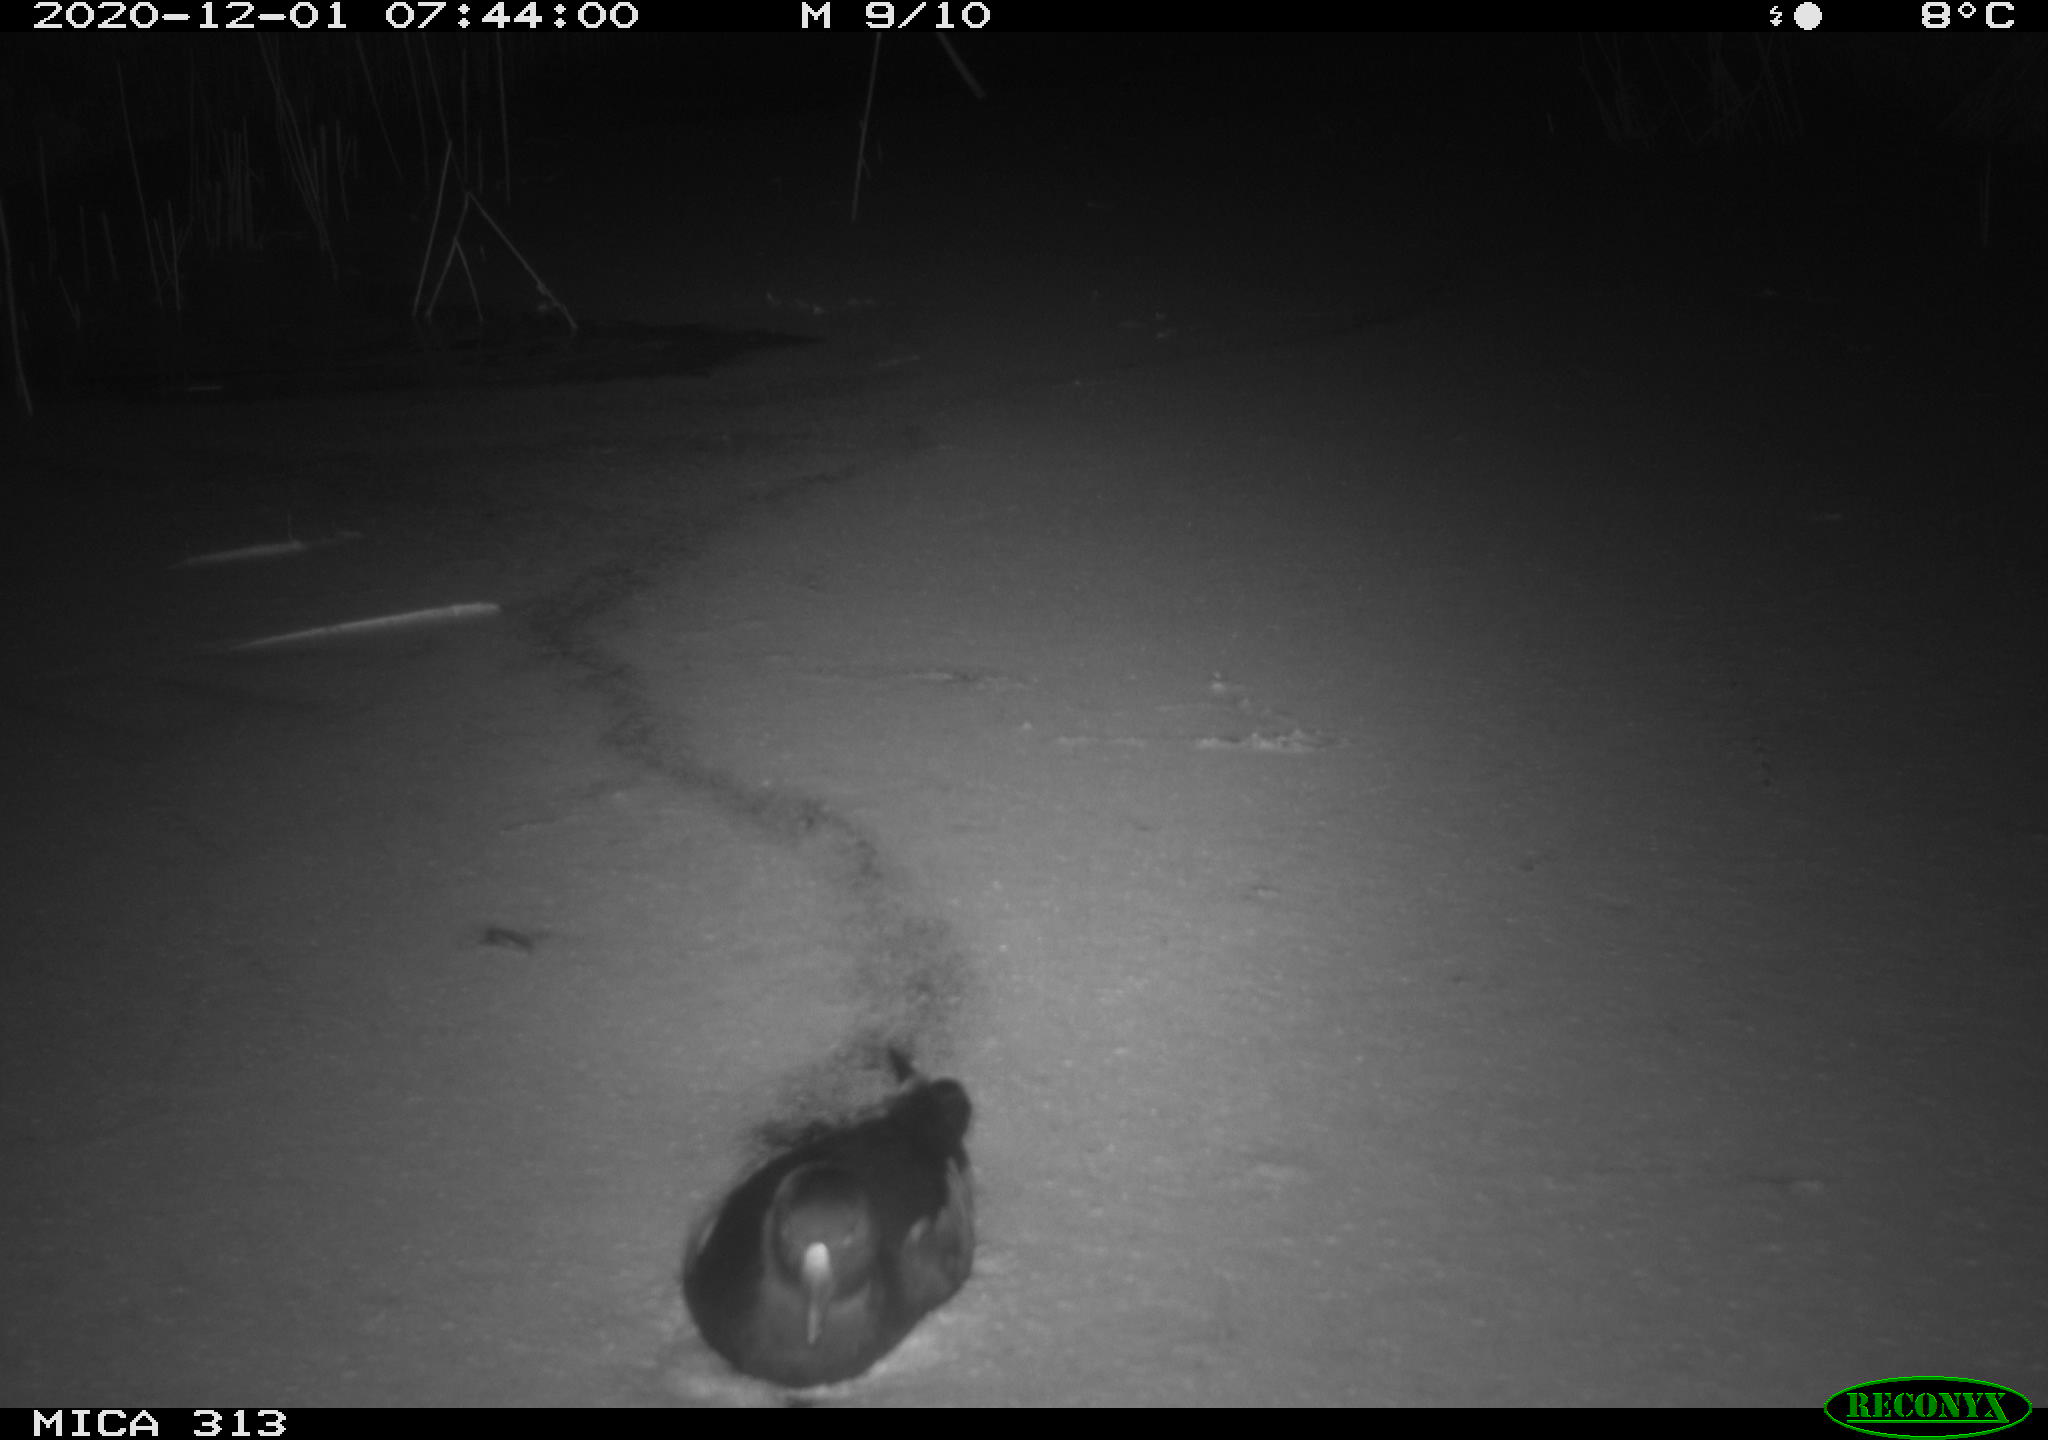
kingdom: Animalia
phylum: Chordata
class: Aves
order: Gruiformes
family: Rallidae
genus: Fulica
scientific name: Fulica atra
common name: Eurasian coot
